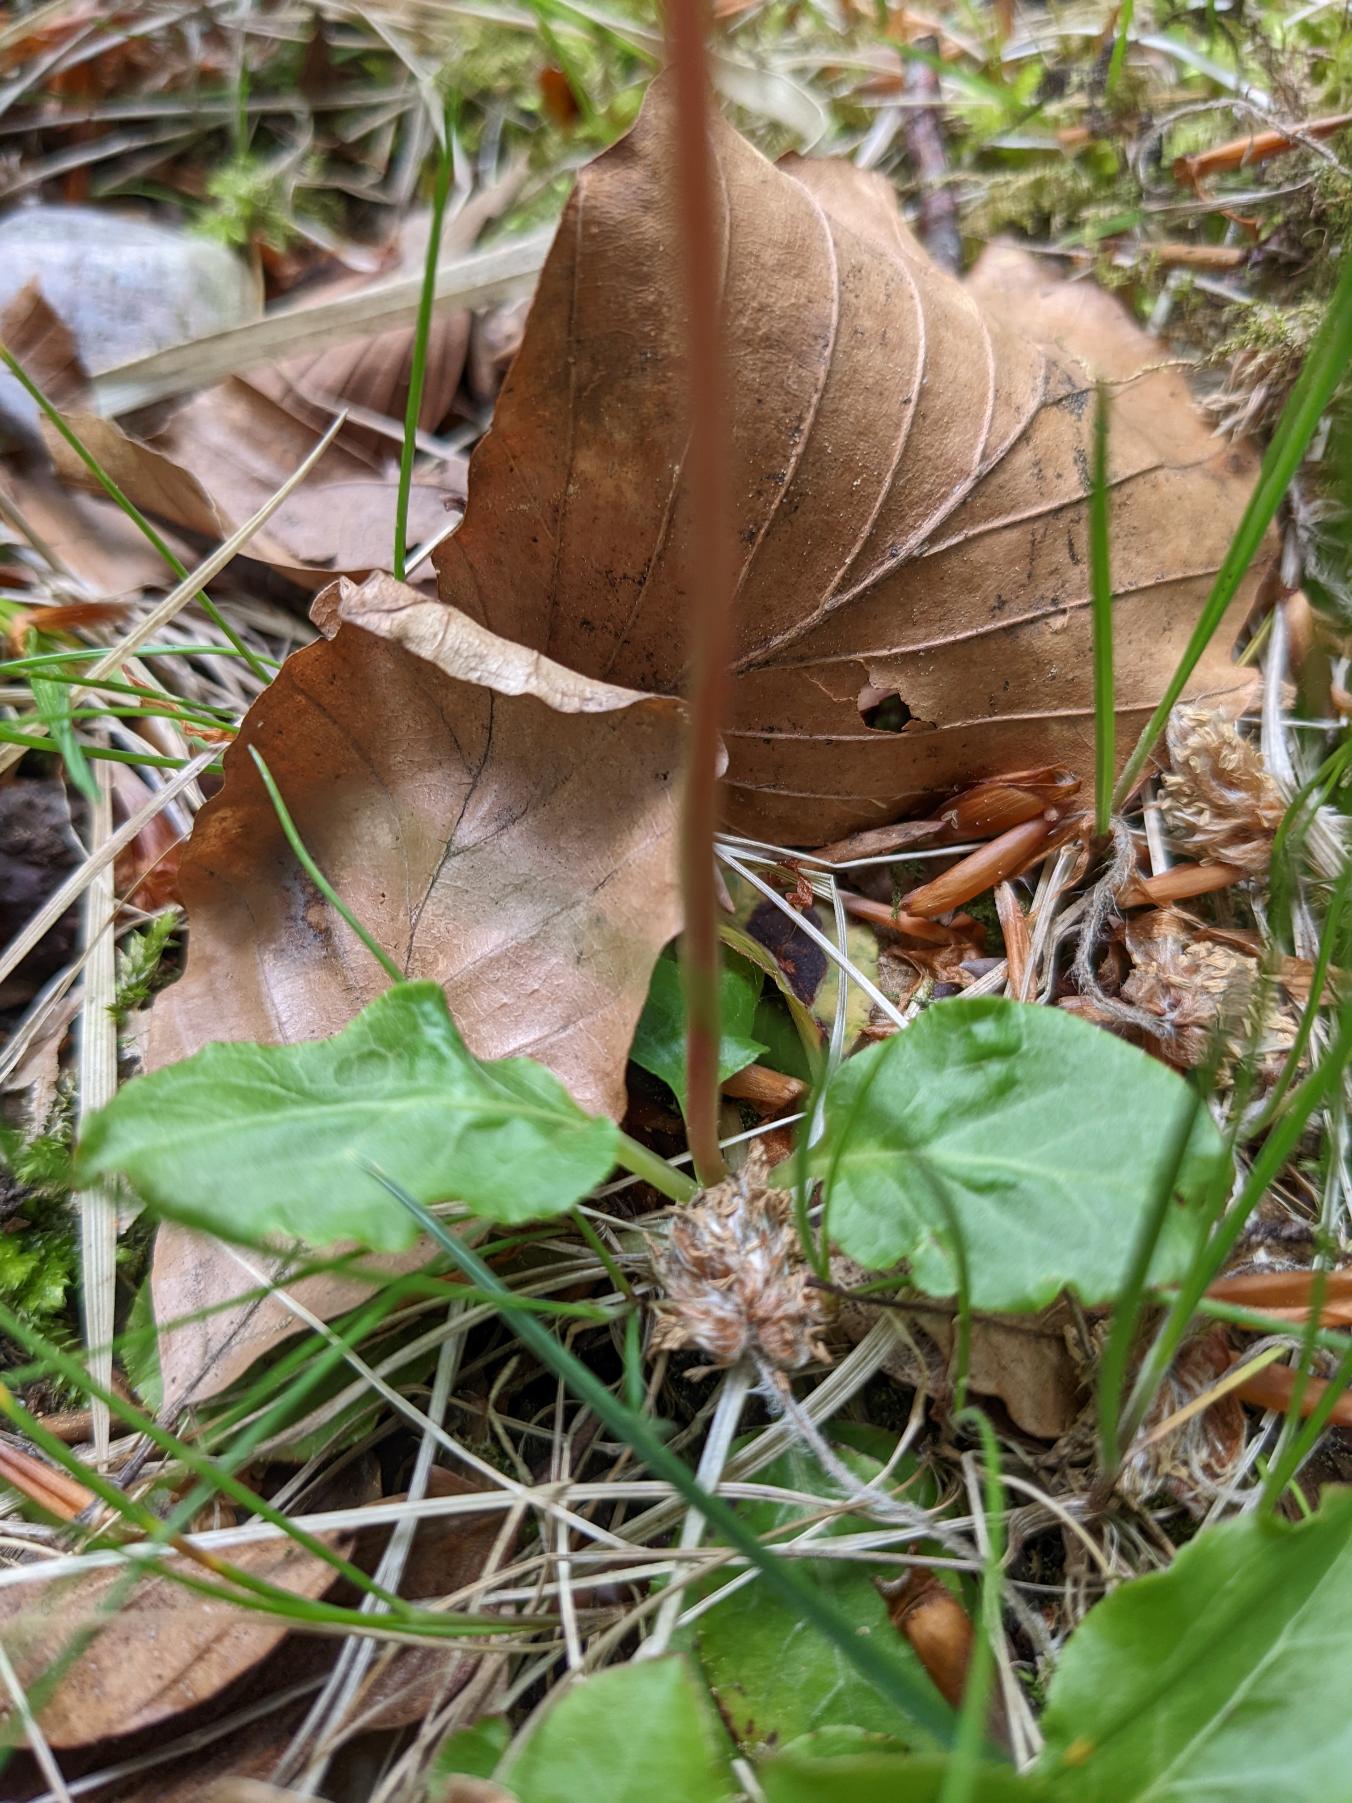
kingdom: Plantae
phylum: Tracheophyta
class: Magnoliopsida
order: Ericales
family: Ericaceae
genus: Pyrola
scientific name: Pyrola minor
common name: Liden vintergrøn
